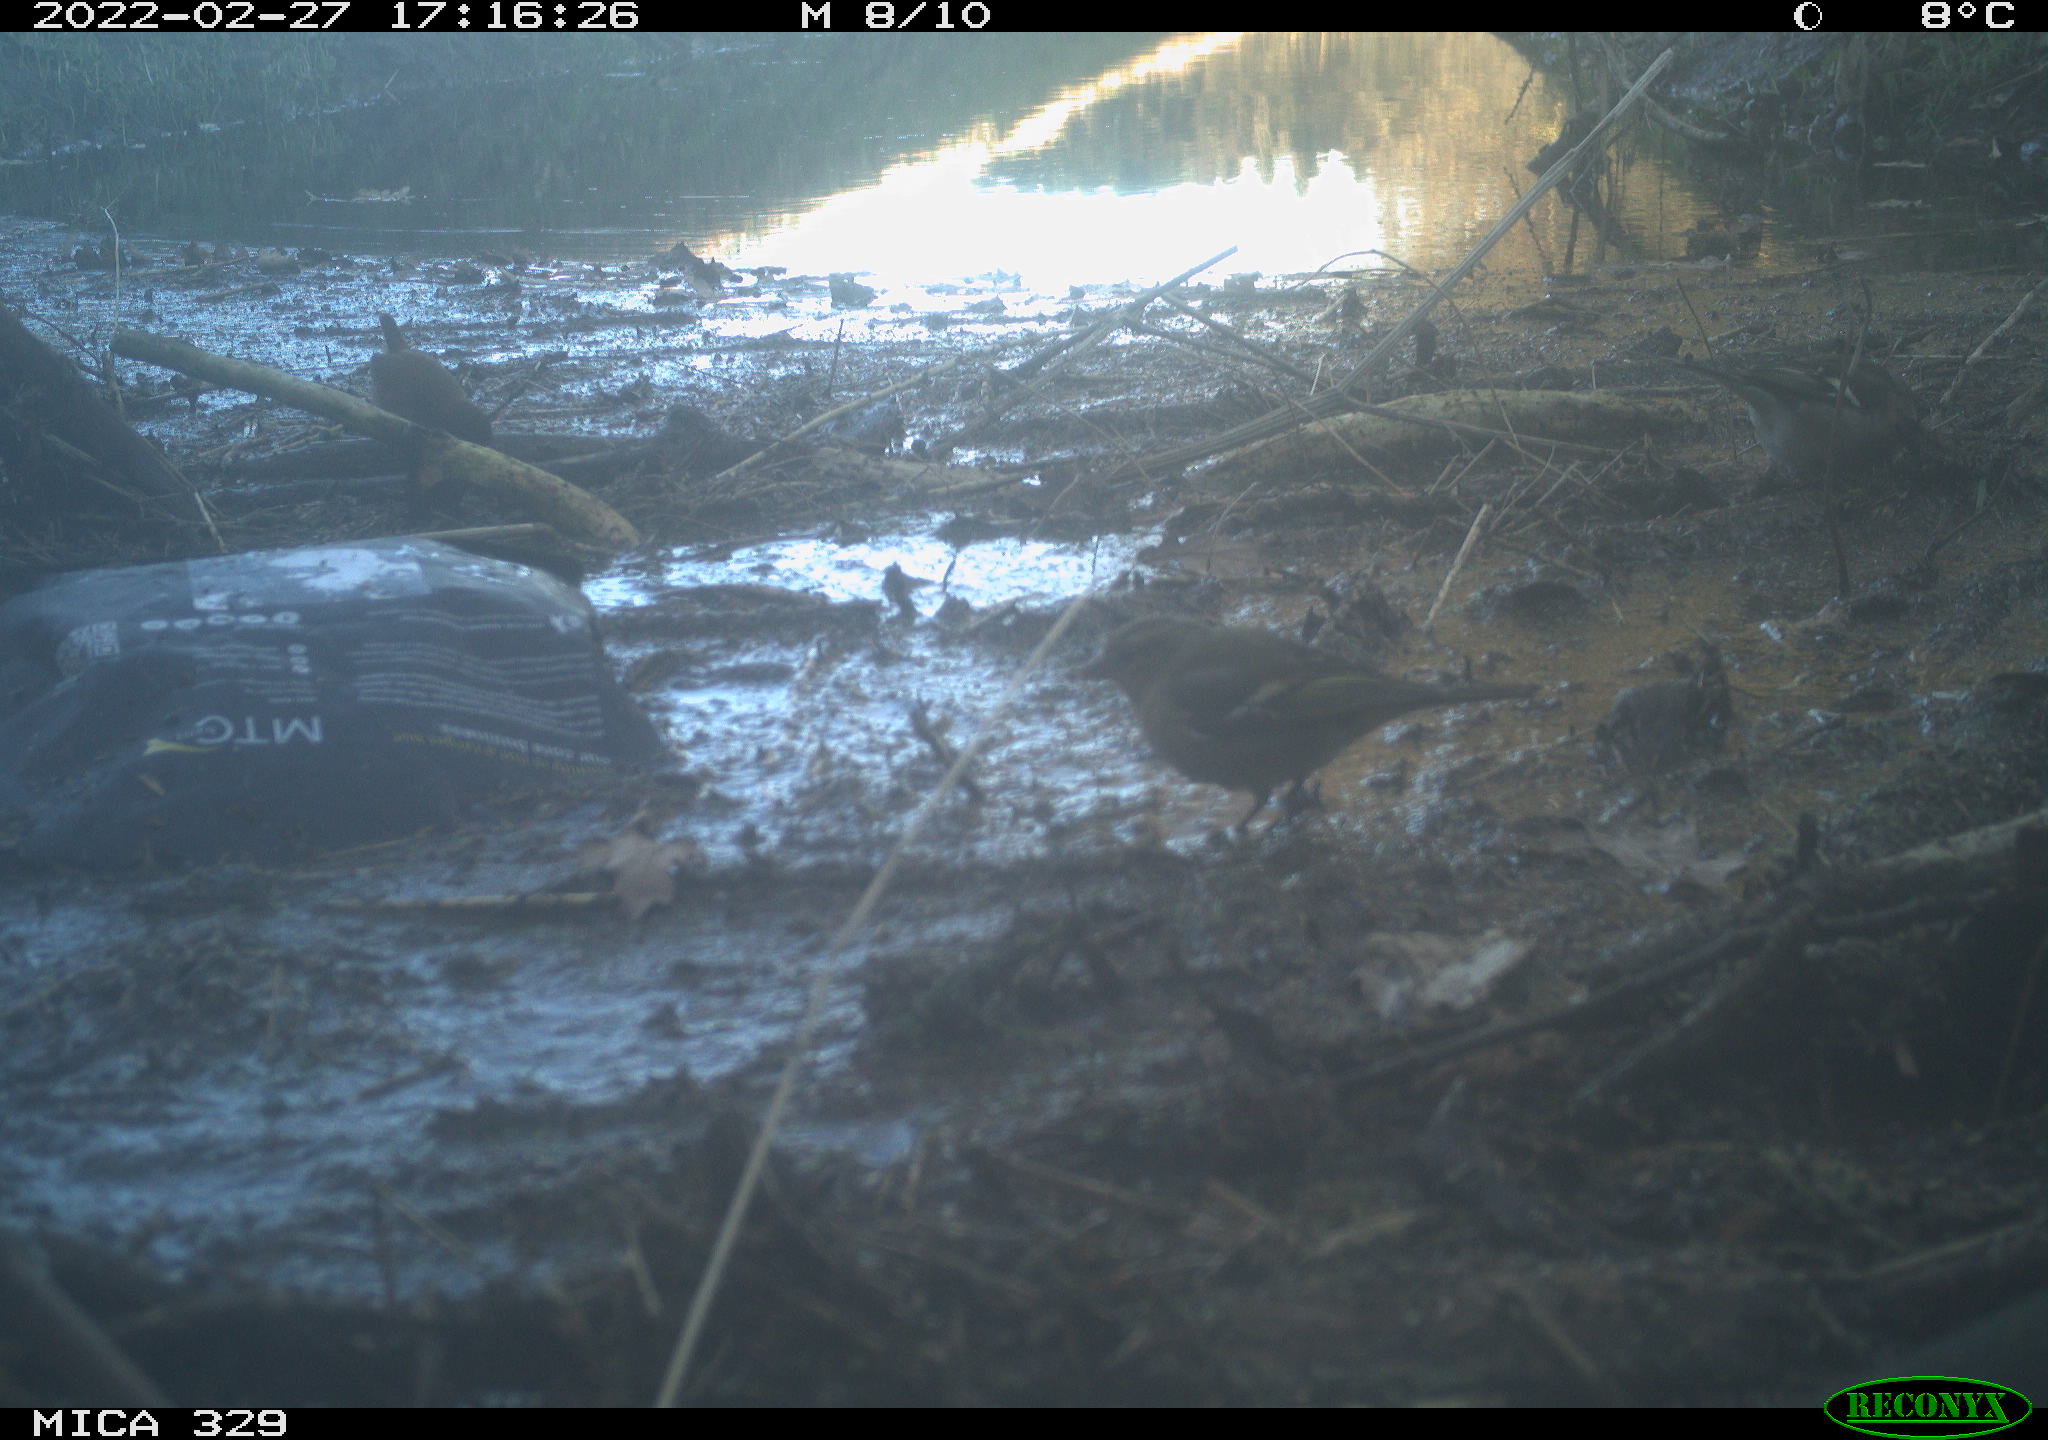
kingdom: Animalia
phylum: Chordata
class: Aves
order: Passeriformes
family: Troglodytidae
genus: Troglodytes
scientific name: Troglodytes troglodytes
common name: Eurasian wren
